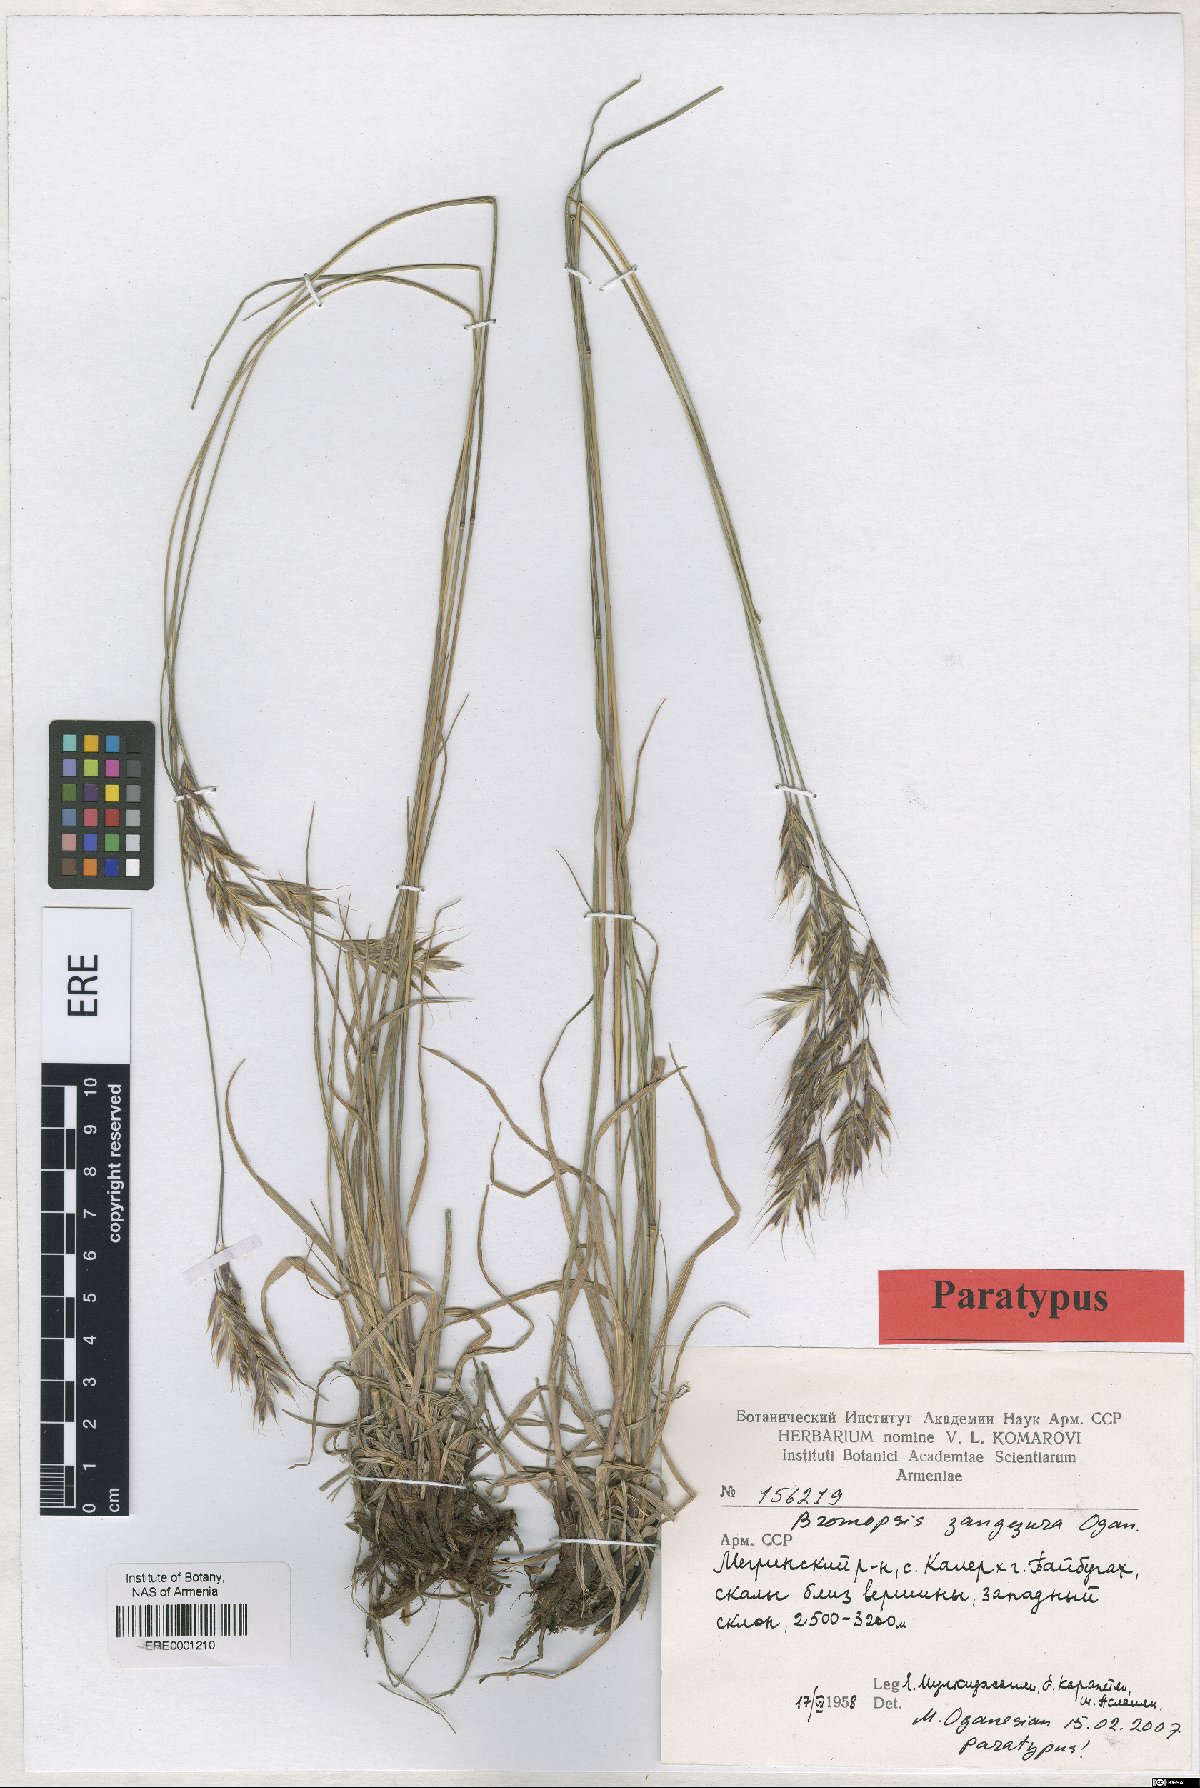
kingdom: Plantae
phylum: Tracheophyta
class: Liliopsida
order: Poales
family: Poaceae
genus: Bromus
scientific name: Bromus erectus
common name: Erect brome
